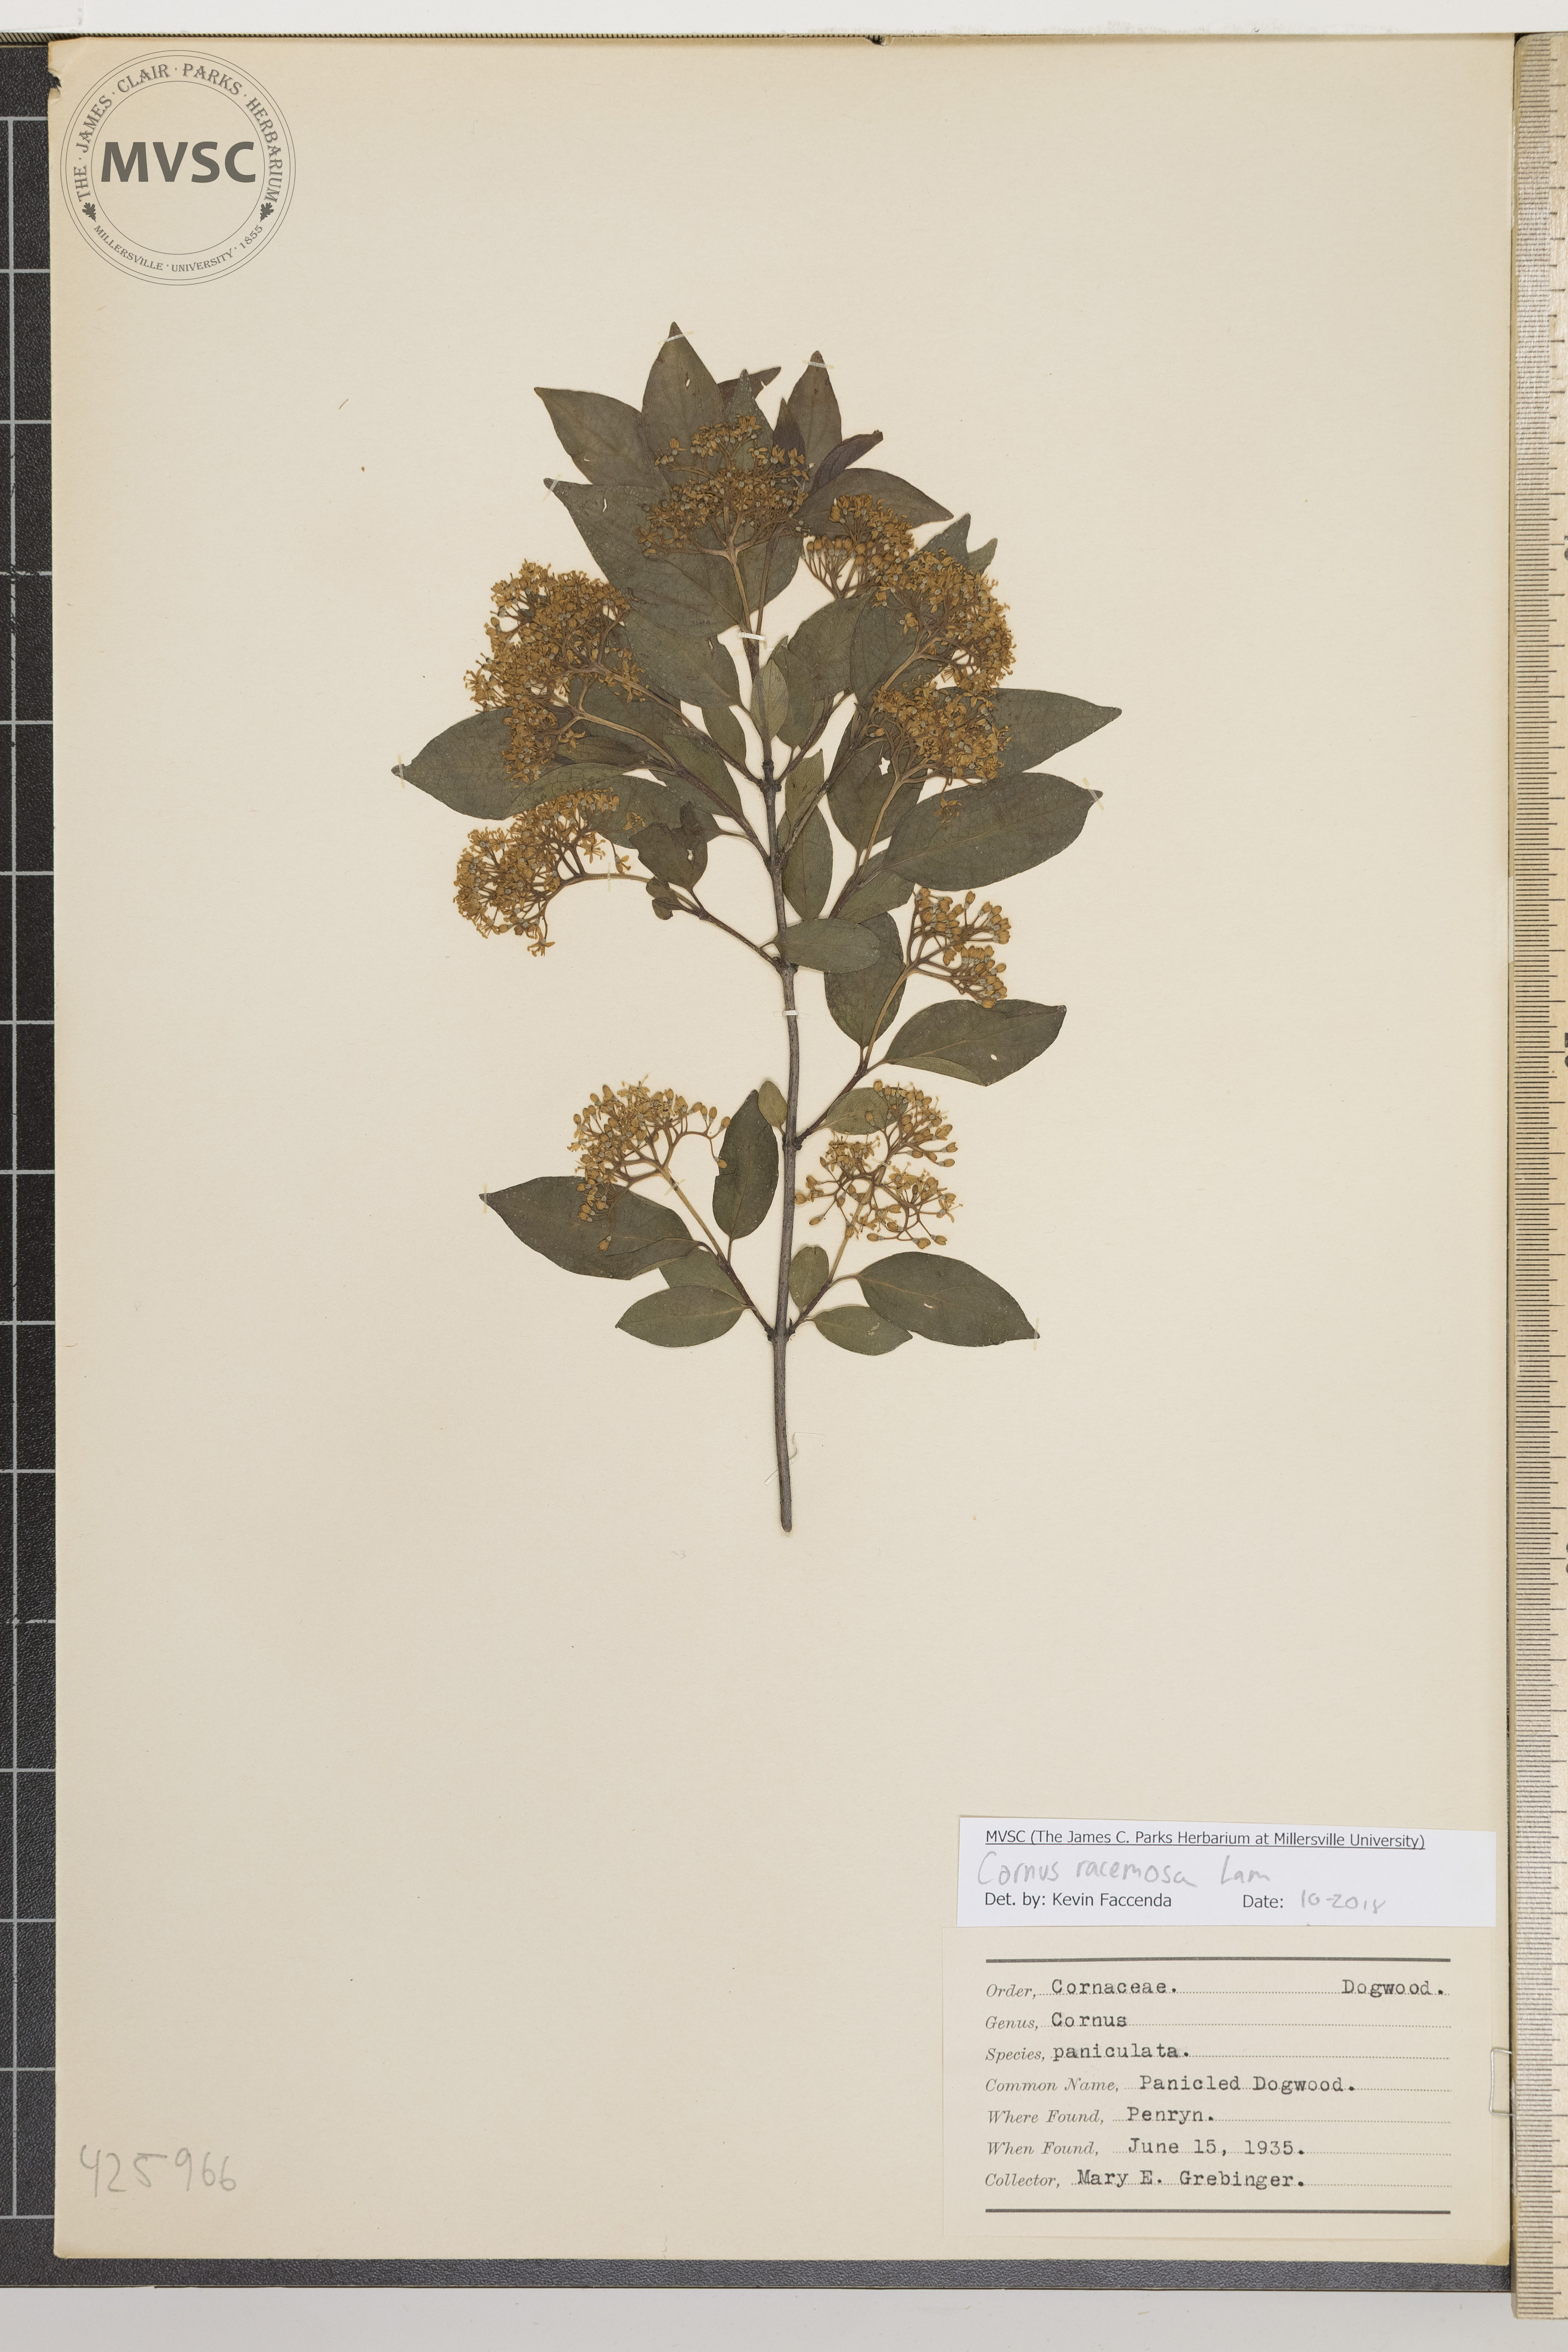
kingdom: Plantae
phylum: Tracheophyta
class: Magnoliopsida
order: Cornales
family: Cornaceae
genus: Cornus
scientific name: Cornus racemosa
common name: Panicled dogwood
